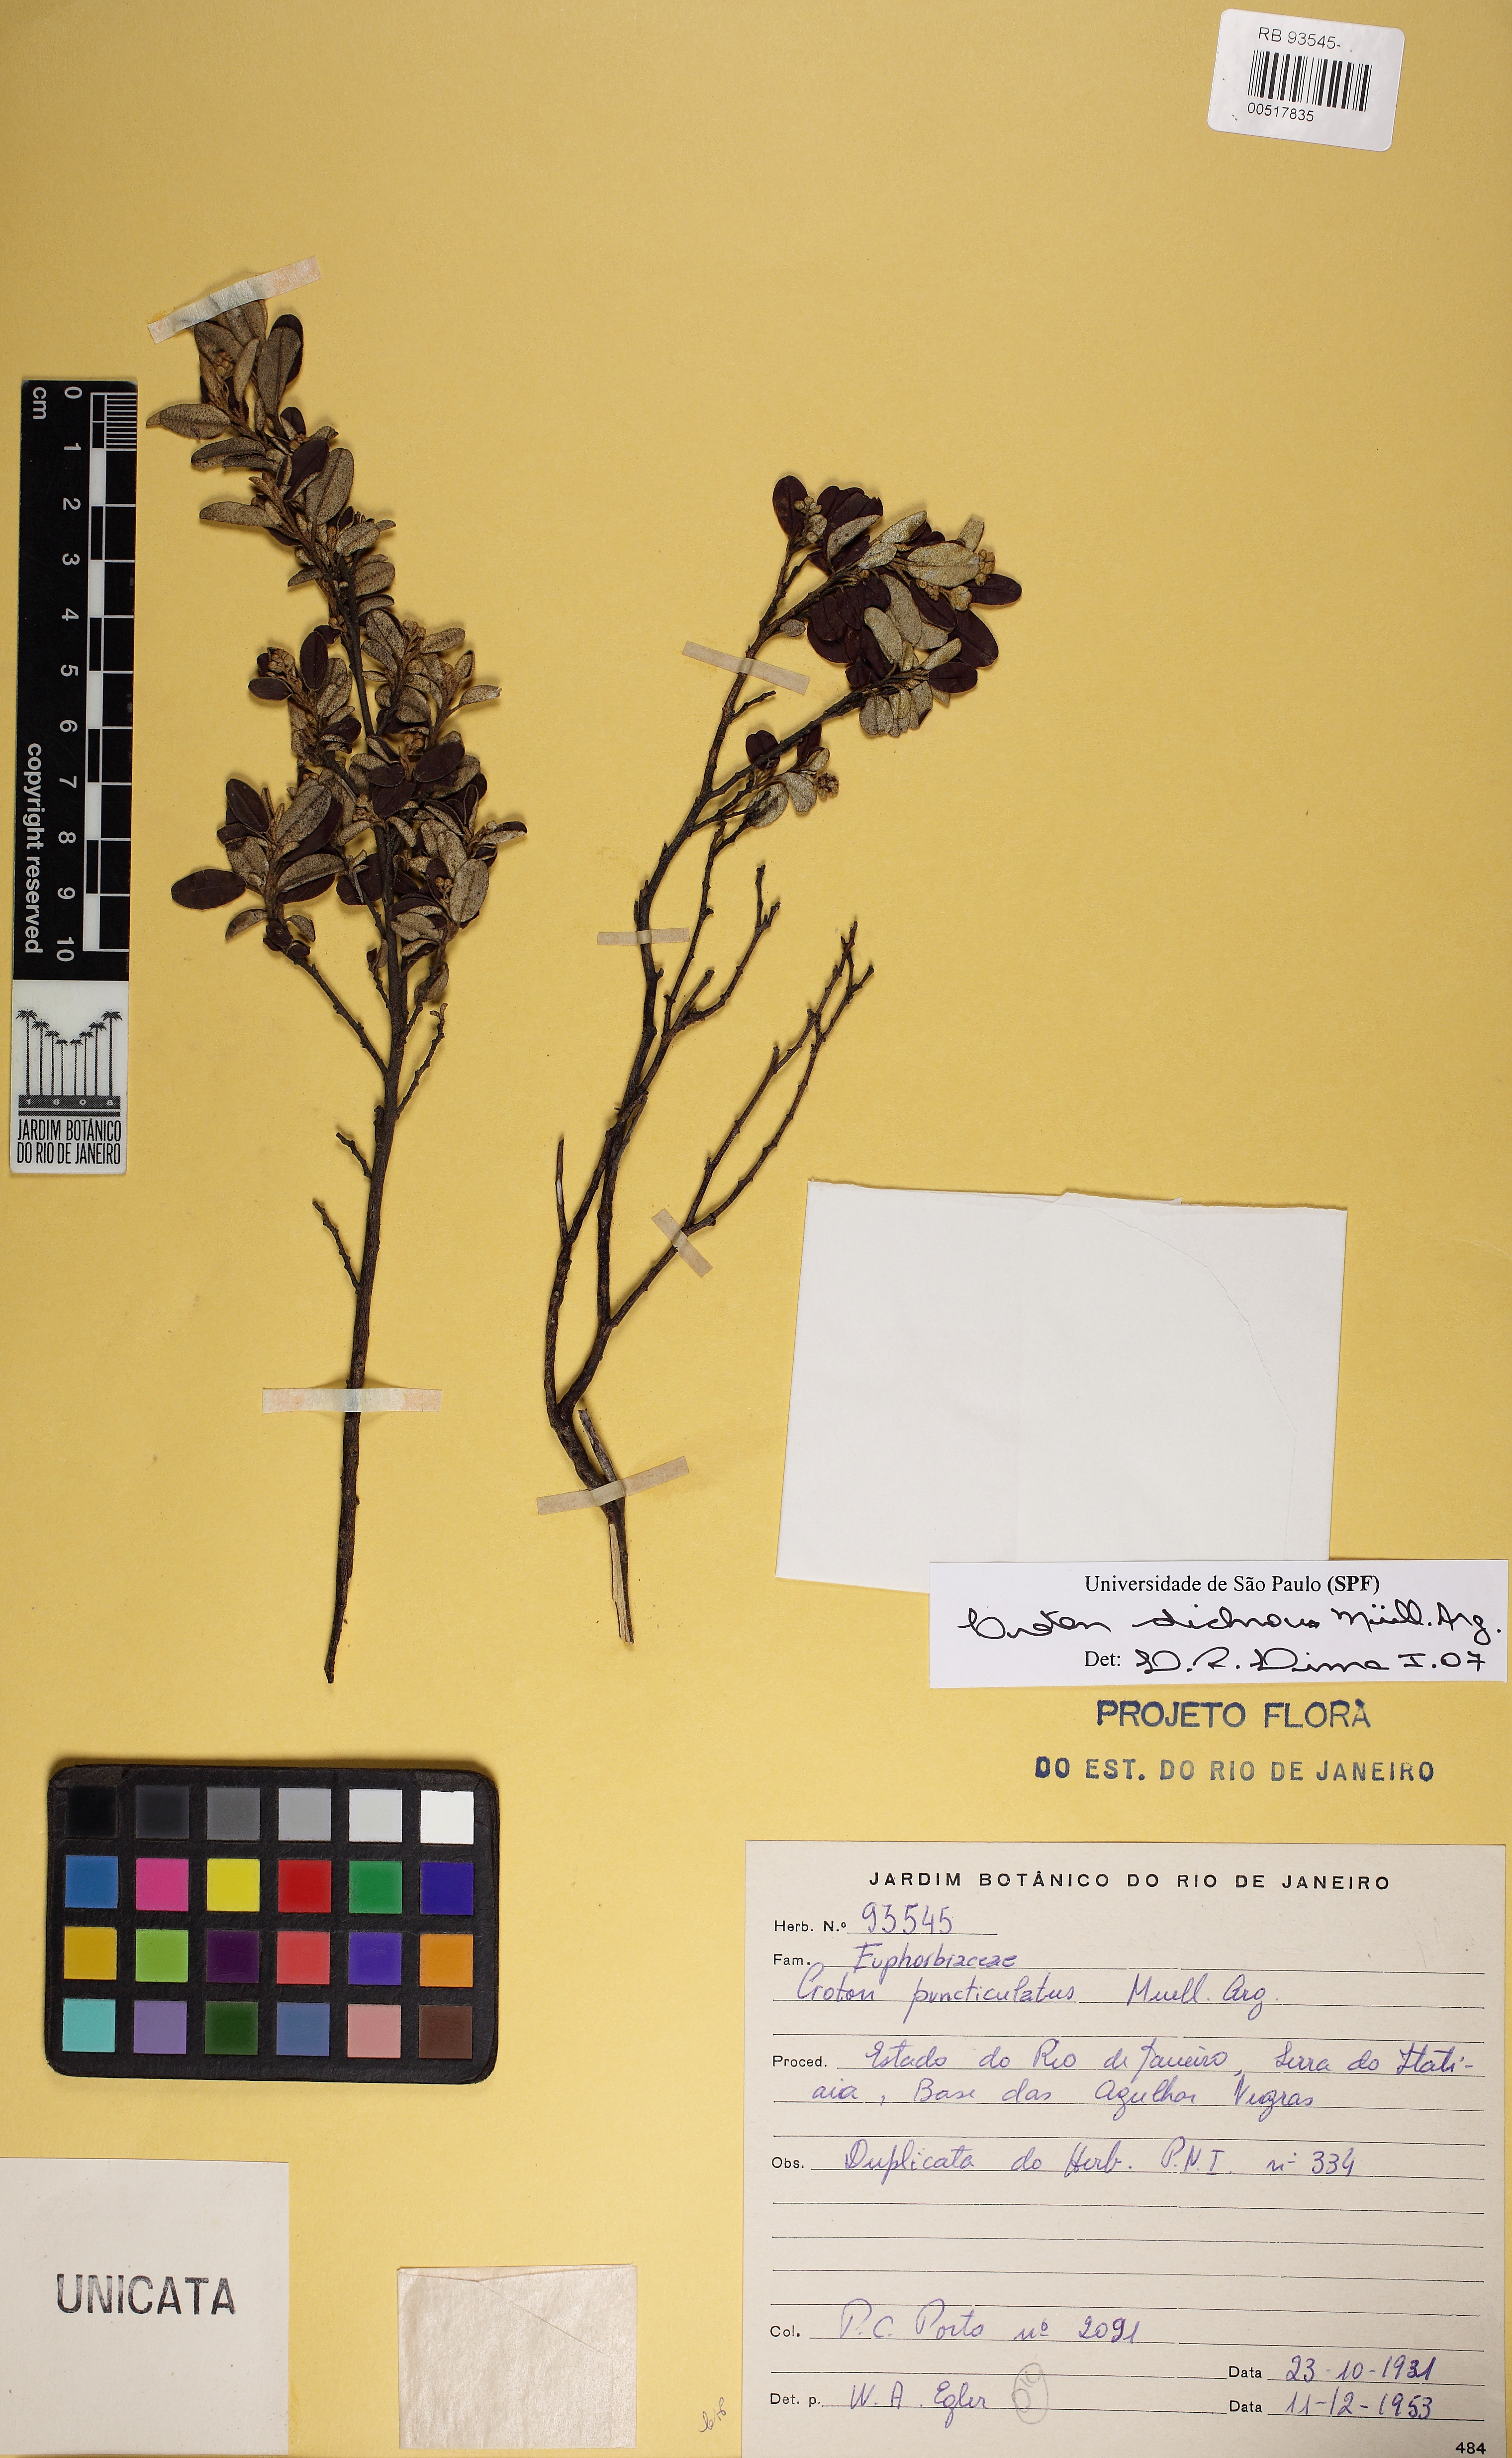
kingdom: Plantae
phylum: Tracheophyta
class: Magnoliopsida
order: Malpighiales
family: Euphorbiaceae
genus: Croton
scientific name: Croton dichrous
